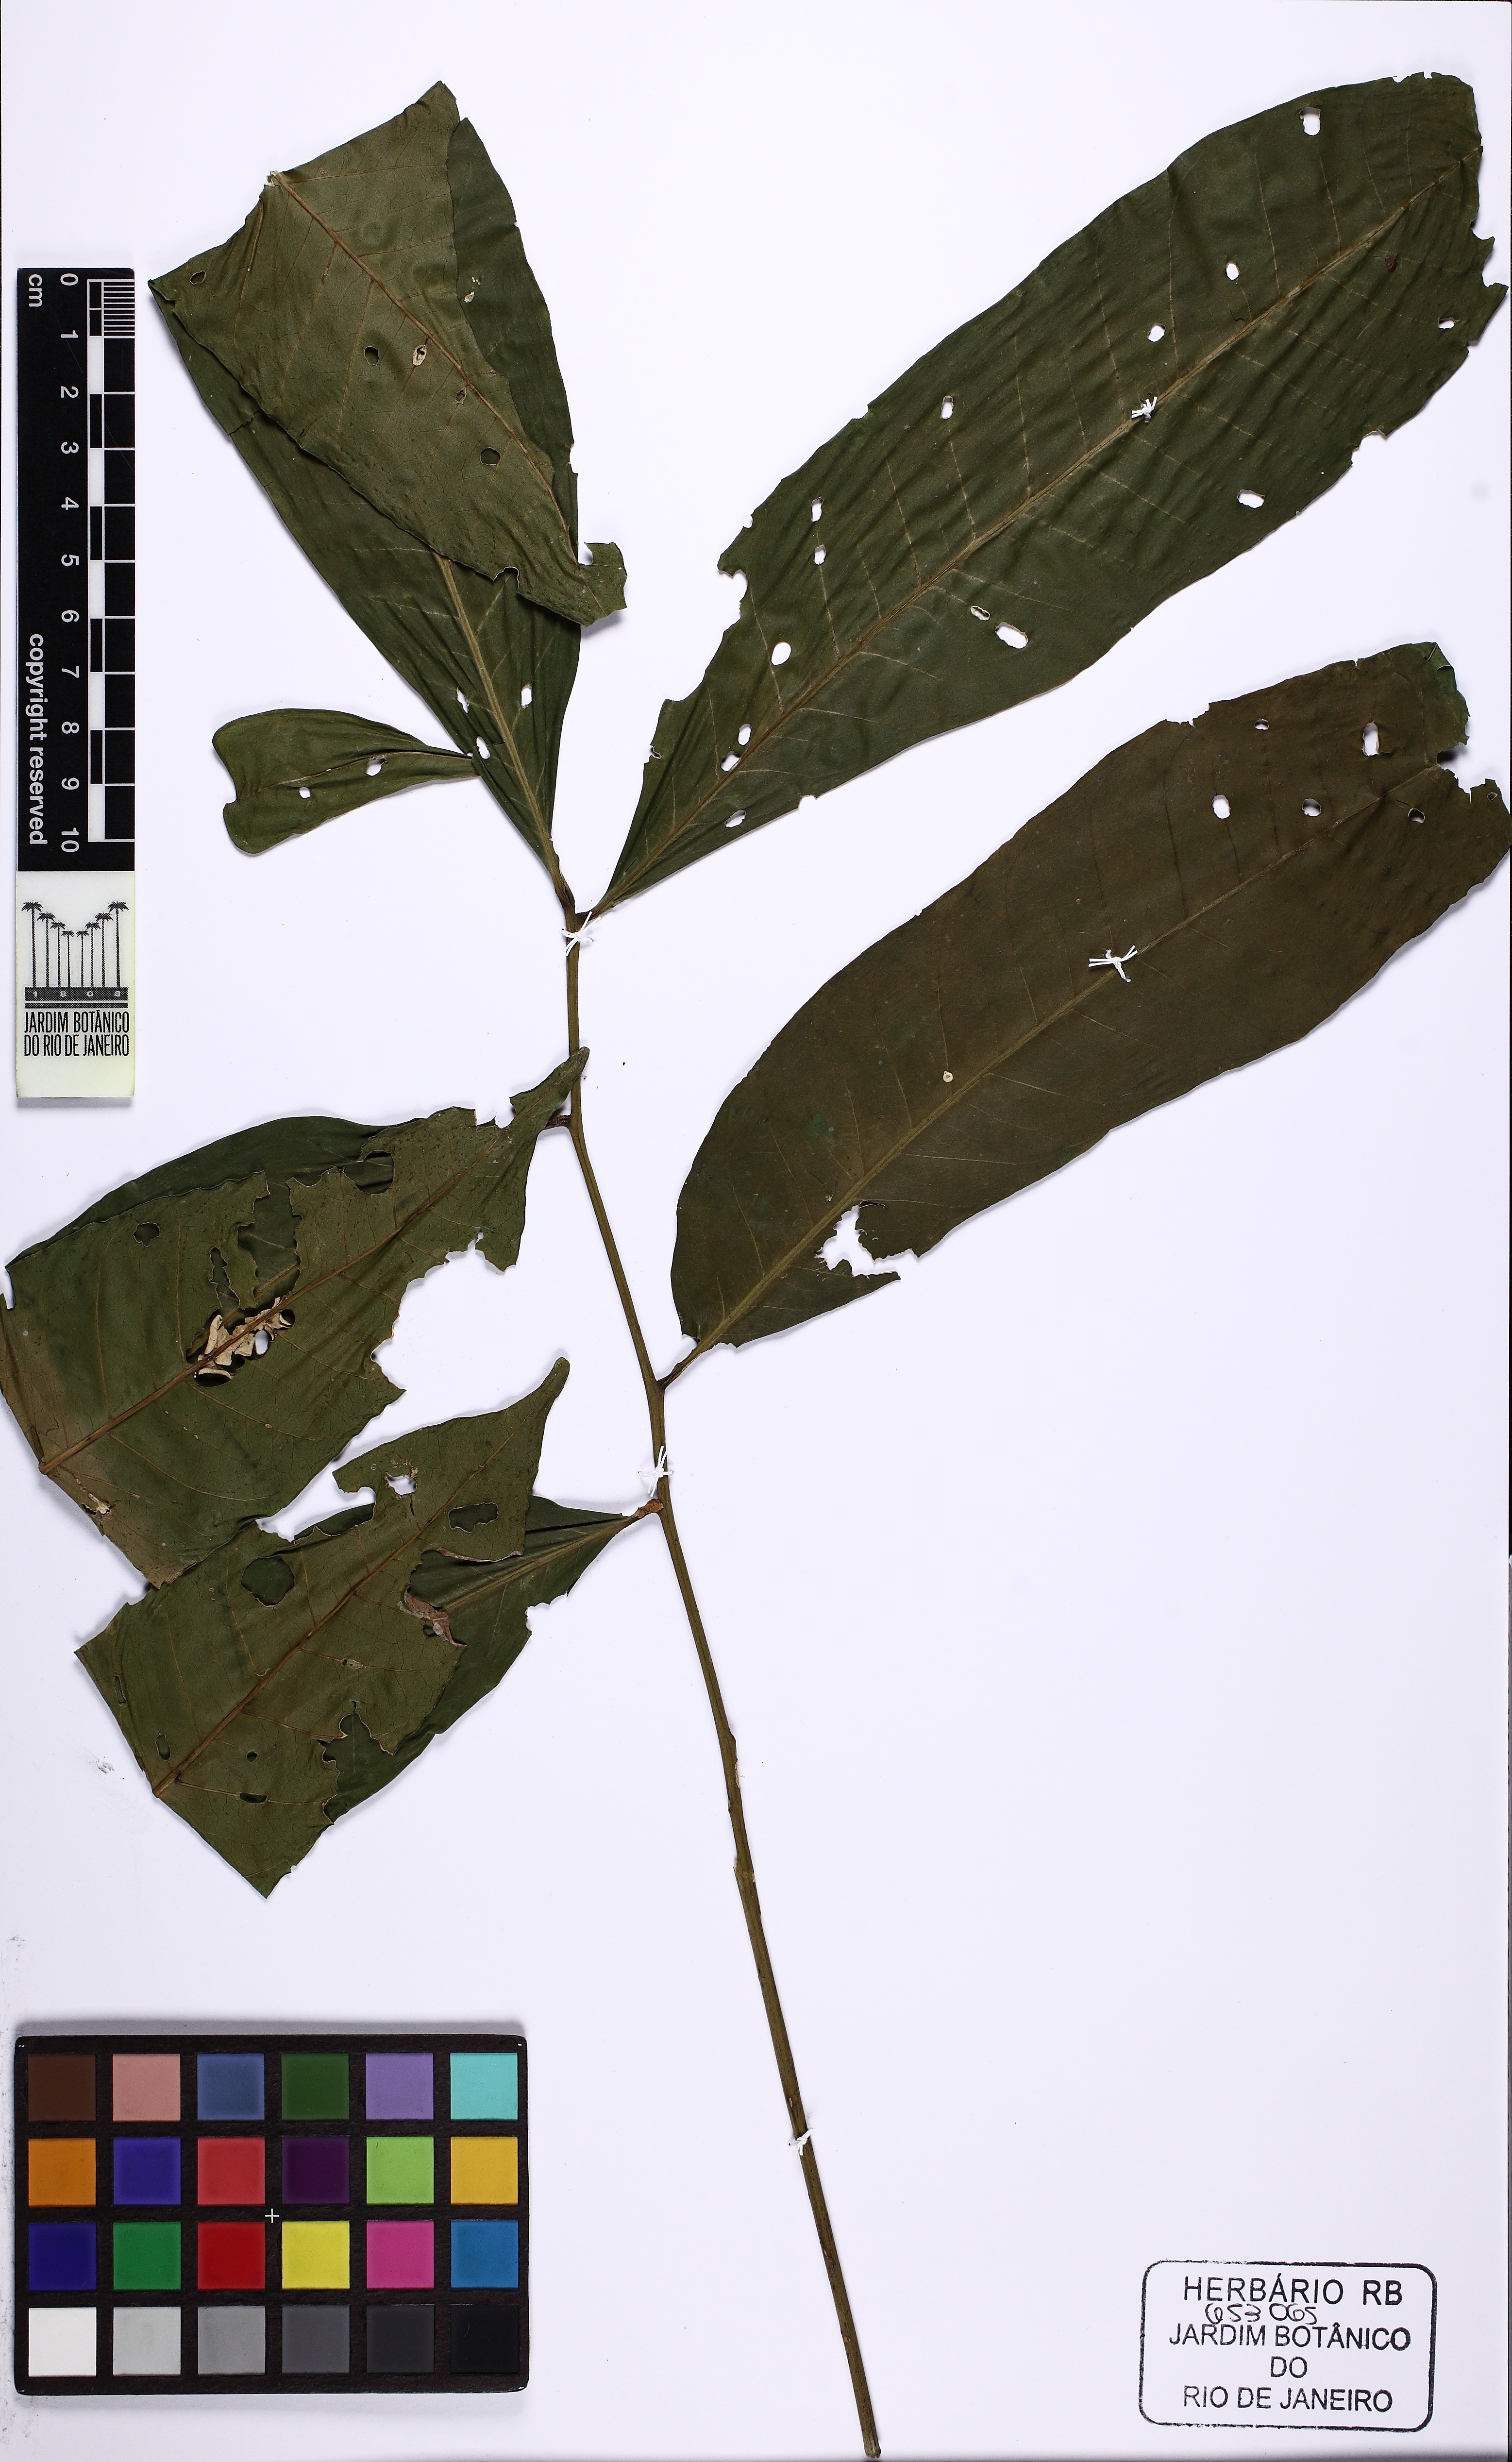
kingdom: Plantae
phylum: Tracheophyta
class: Magnoliopsida
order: Sapindales
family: Meliaceae
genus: Cabralea
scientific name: Cabralea canjerana
